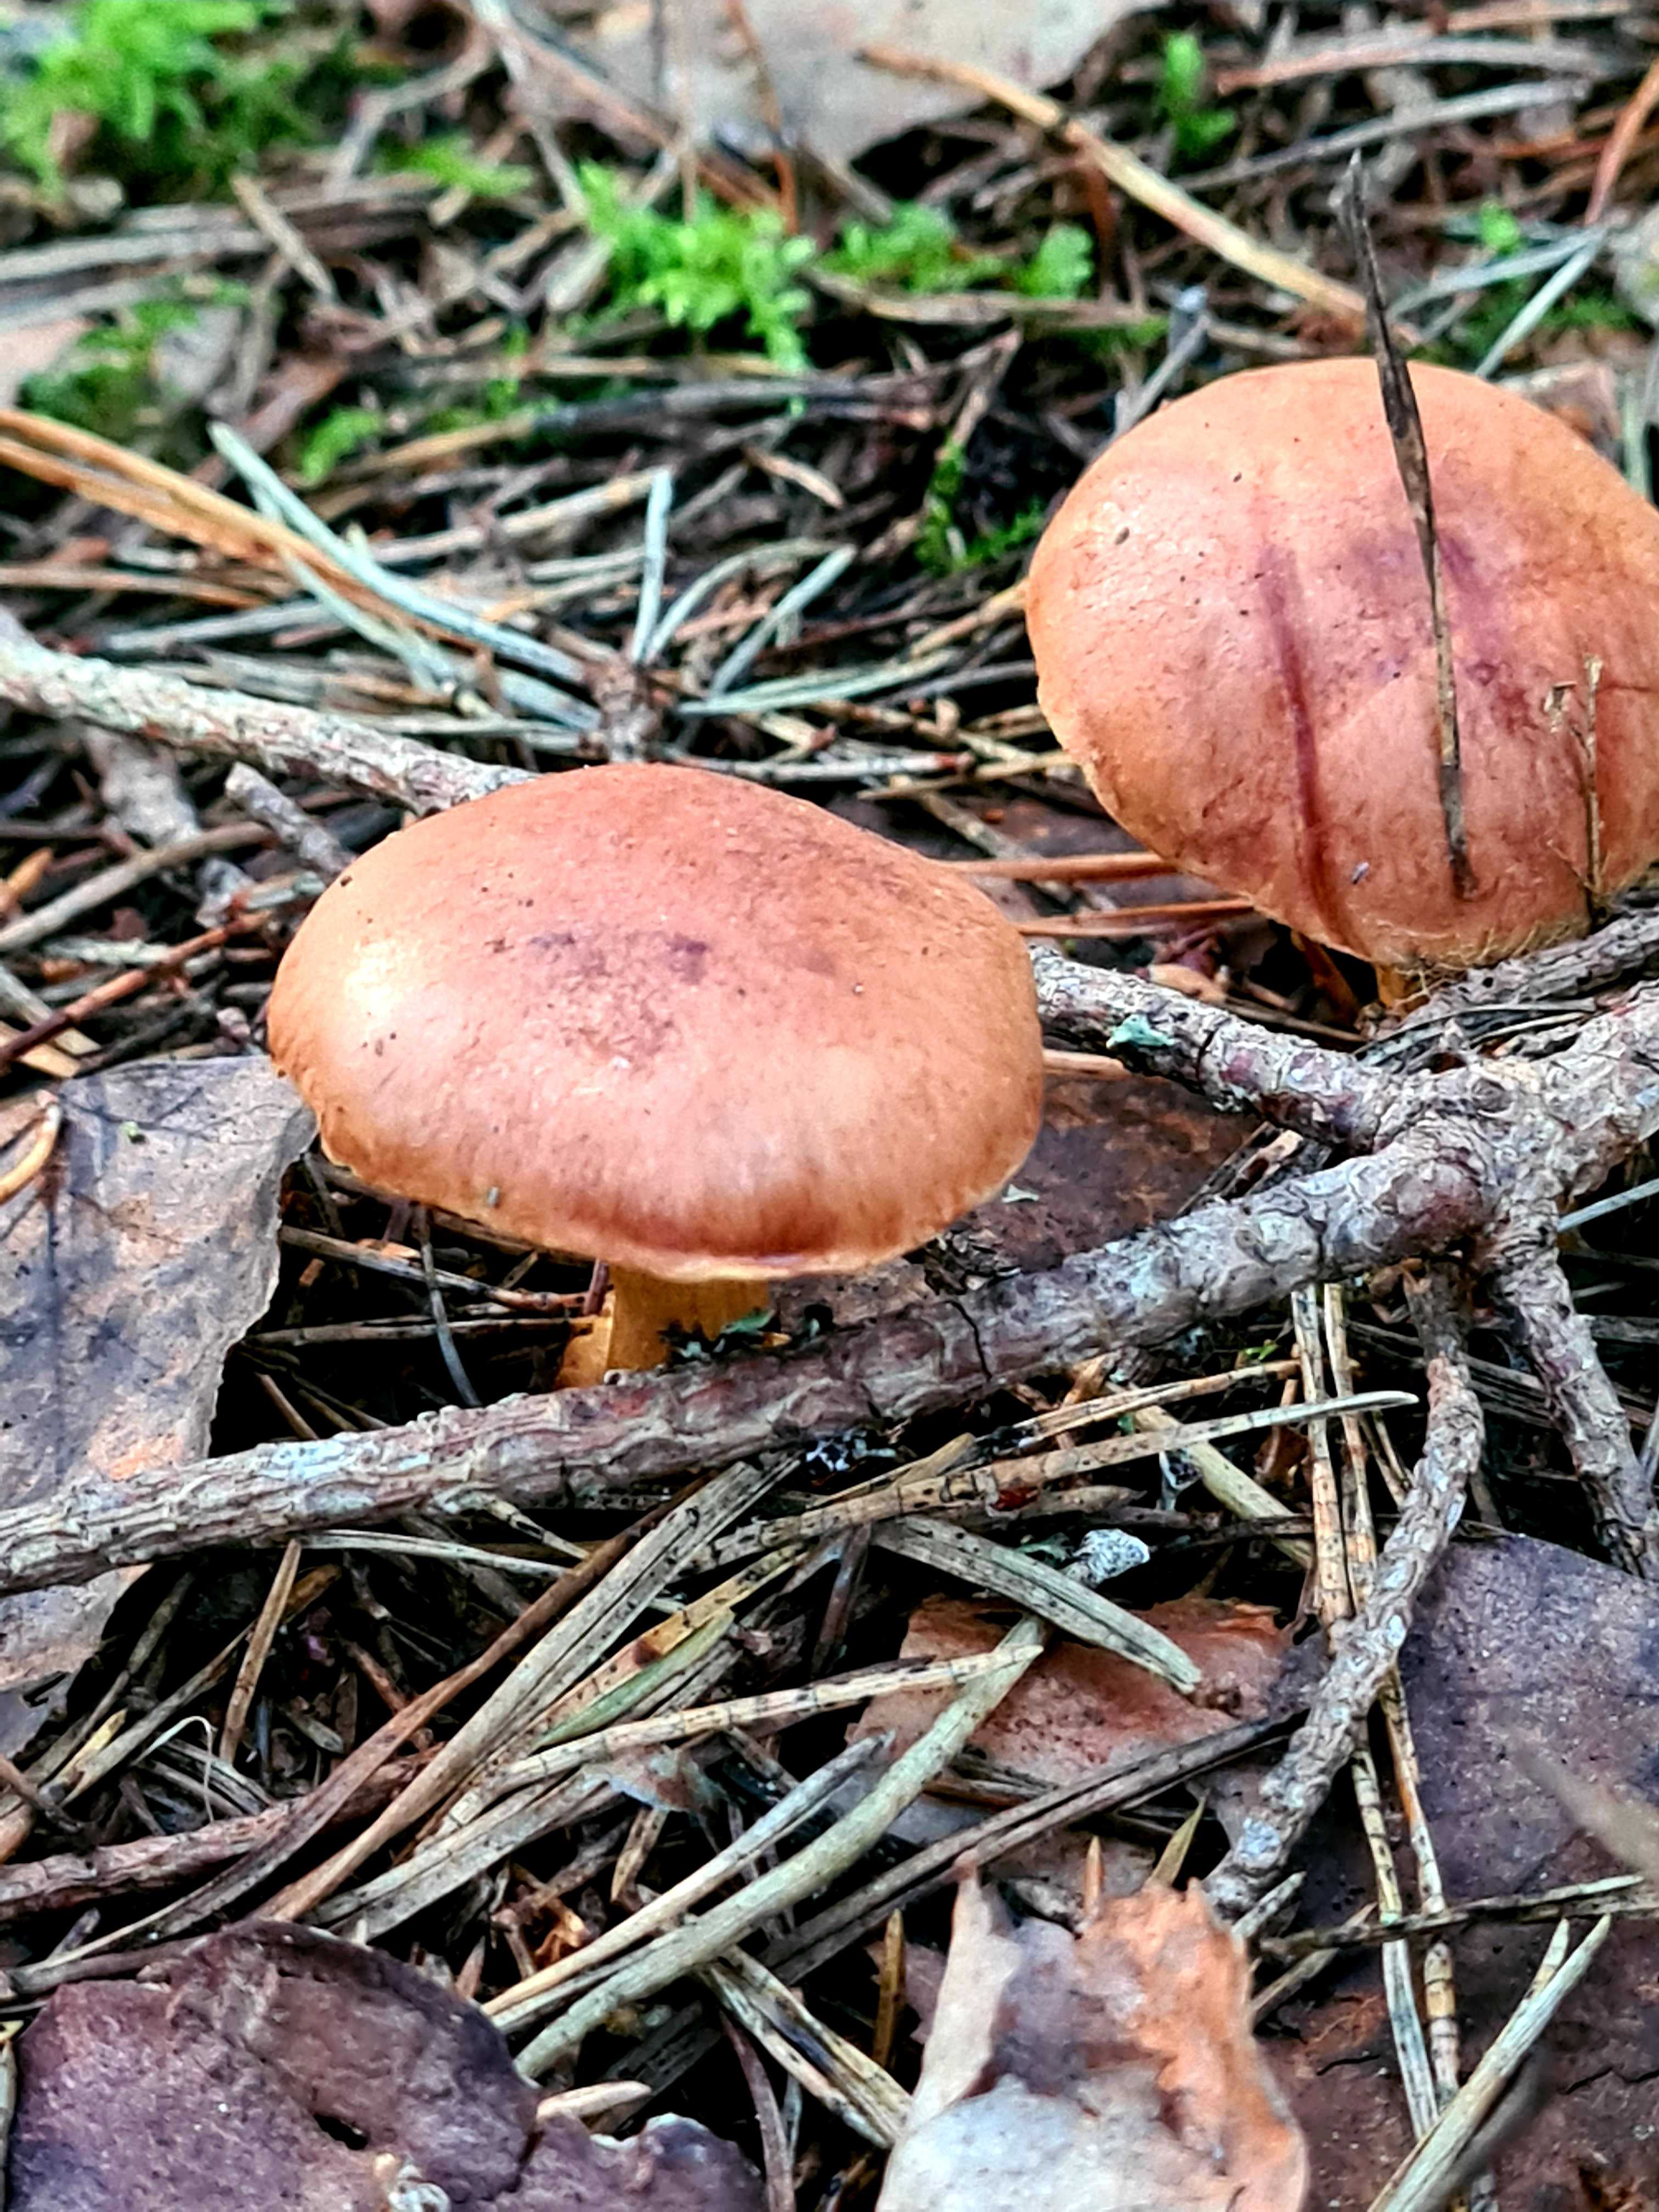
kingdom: Fungi
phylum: Basidiomycota
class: Agaricomycetes
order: Boletales
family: Boletaceae
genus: Chalciporus
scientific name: Chalciporus piperatus
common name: peberrørhat
